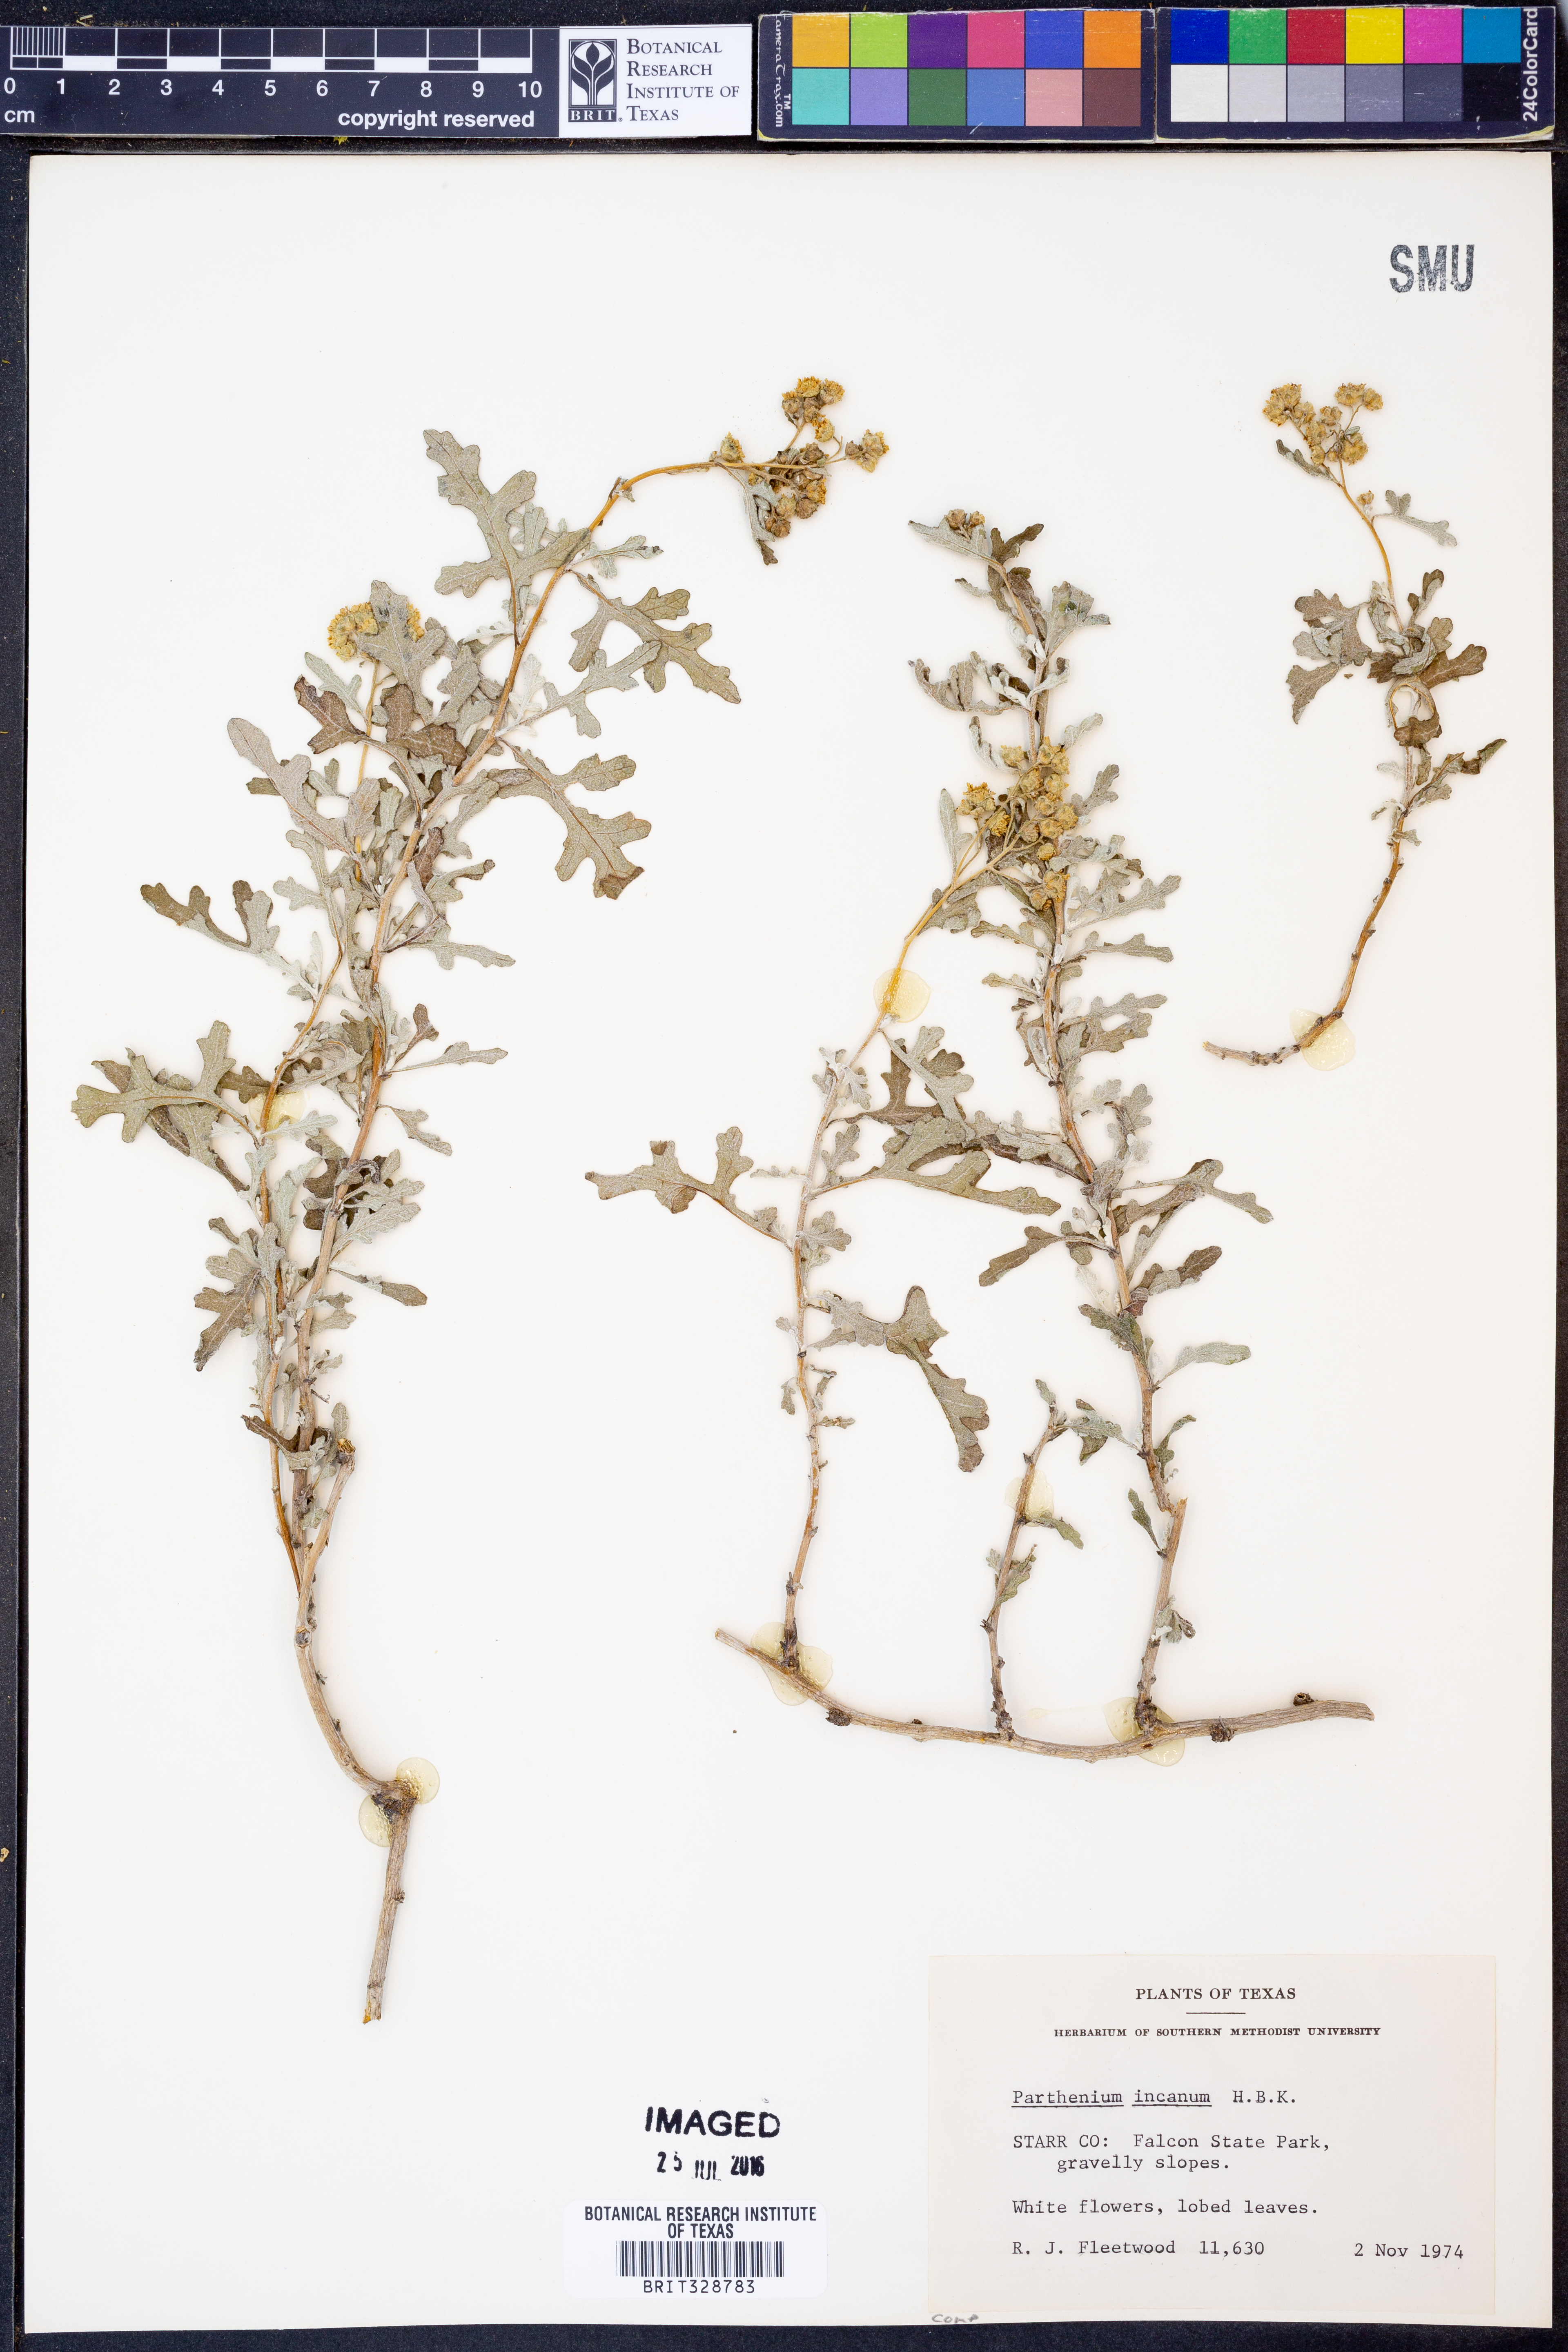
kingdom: Plantae
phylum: Tracheophyta
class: Magnoliopsida
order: Asterales
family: Asteraceae
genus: Parthenium
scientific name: Parthenium incanum
